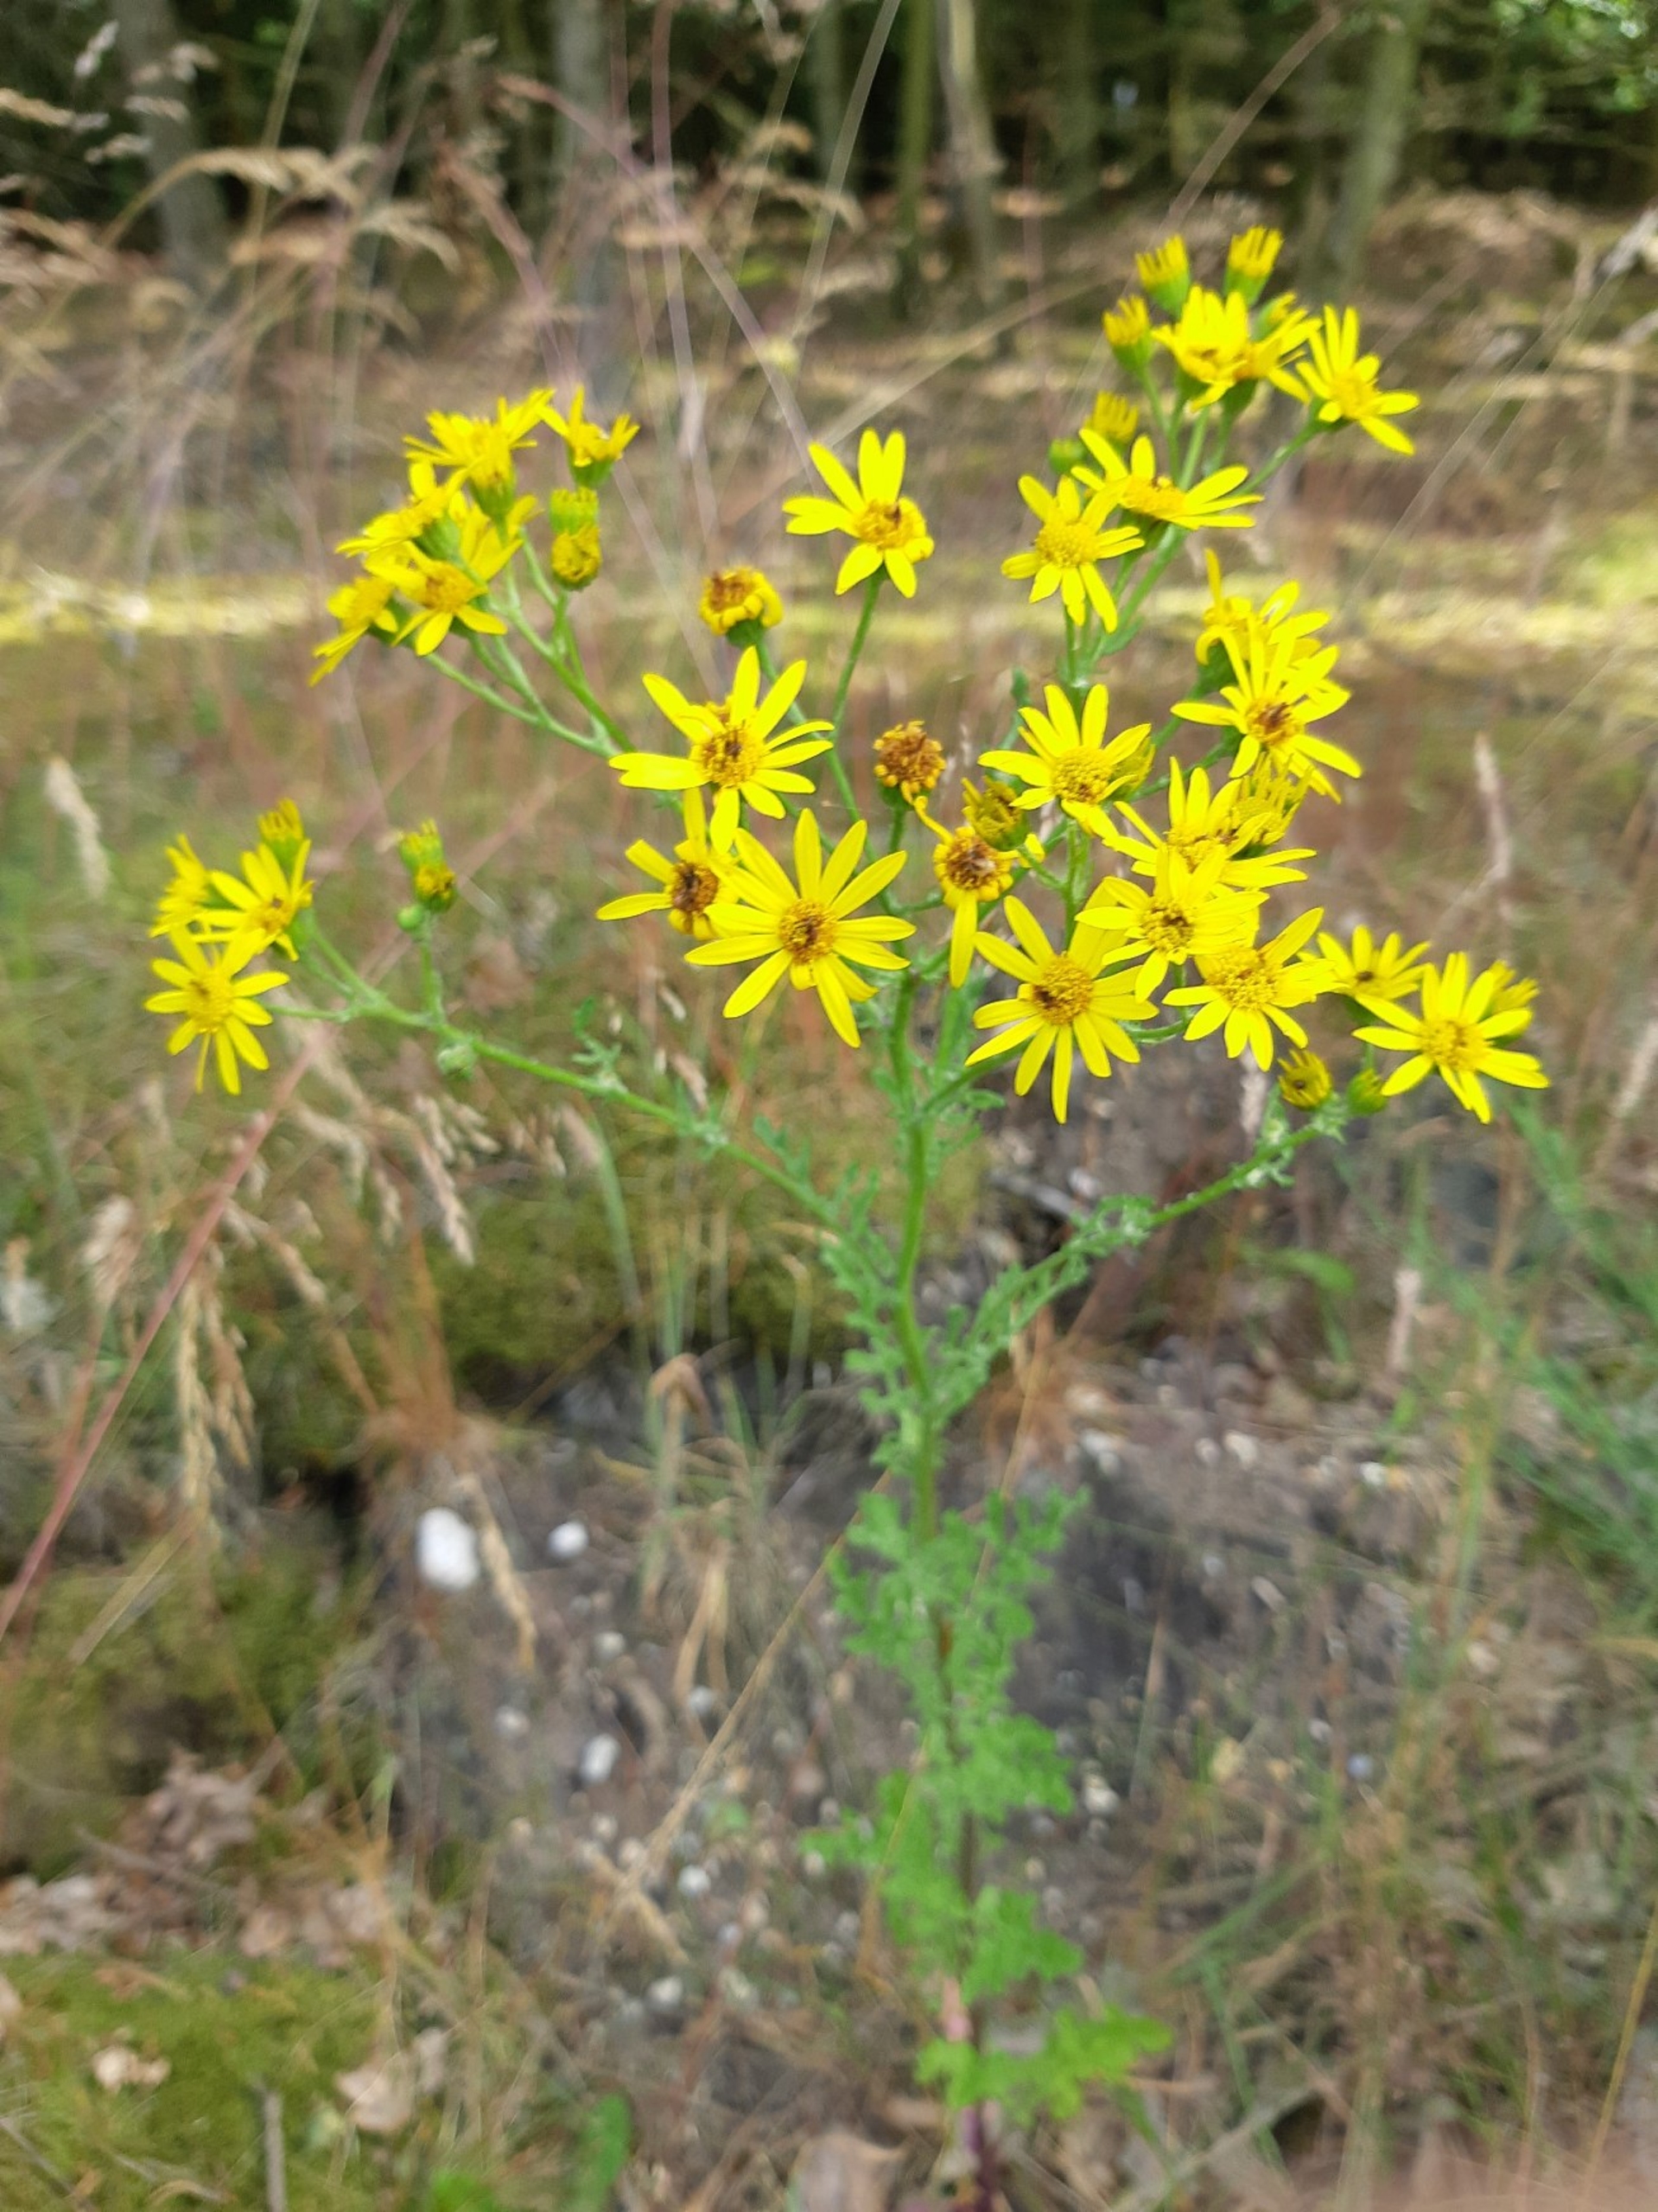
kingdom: Plantae
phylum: Tracheophyta
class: Magnoliopsida
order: Asterales
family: Asteraceae
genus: Jacobaea
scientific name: Jacobaea vulgaris
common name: Eng-brandbæger
